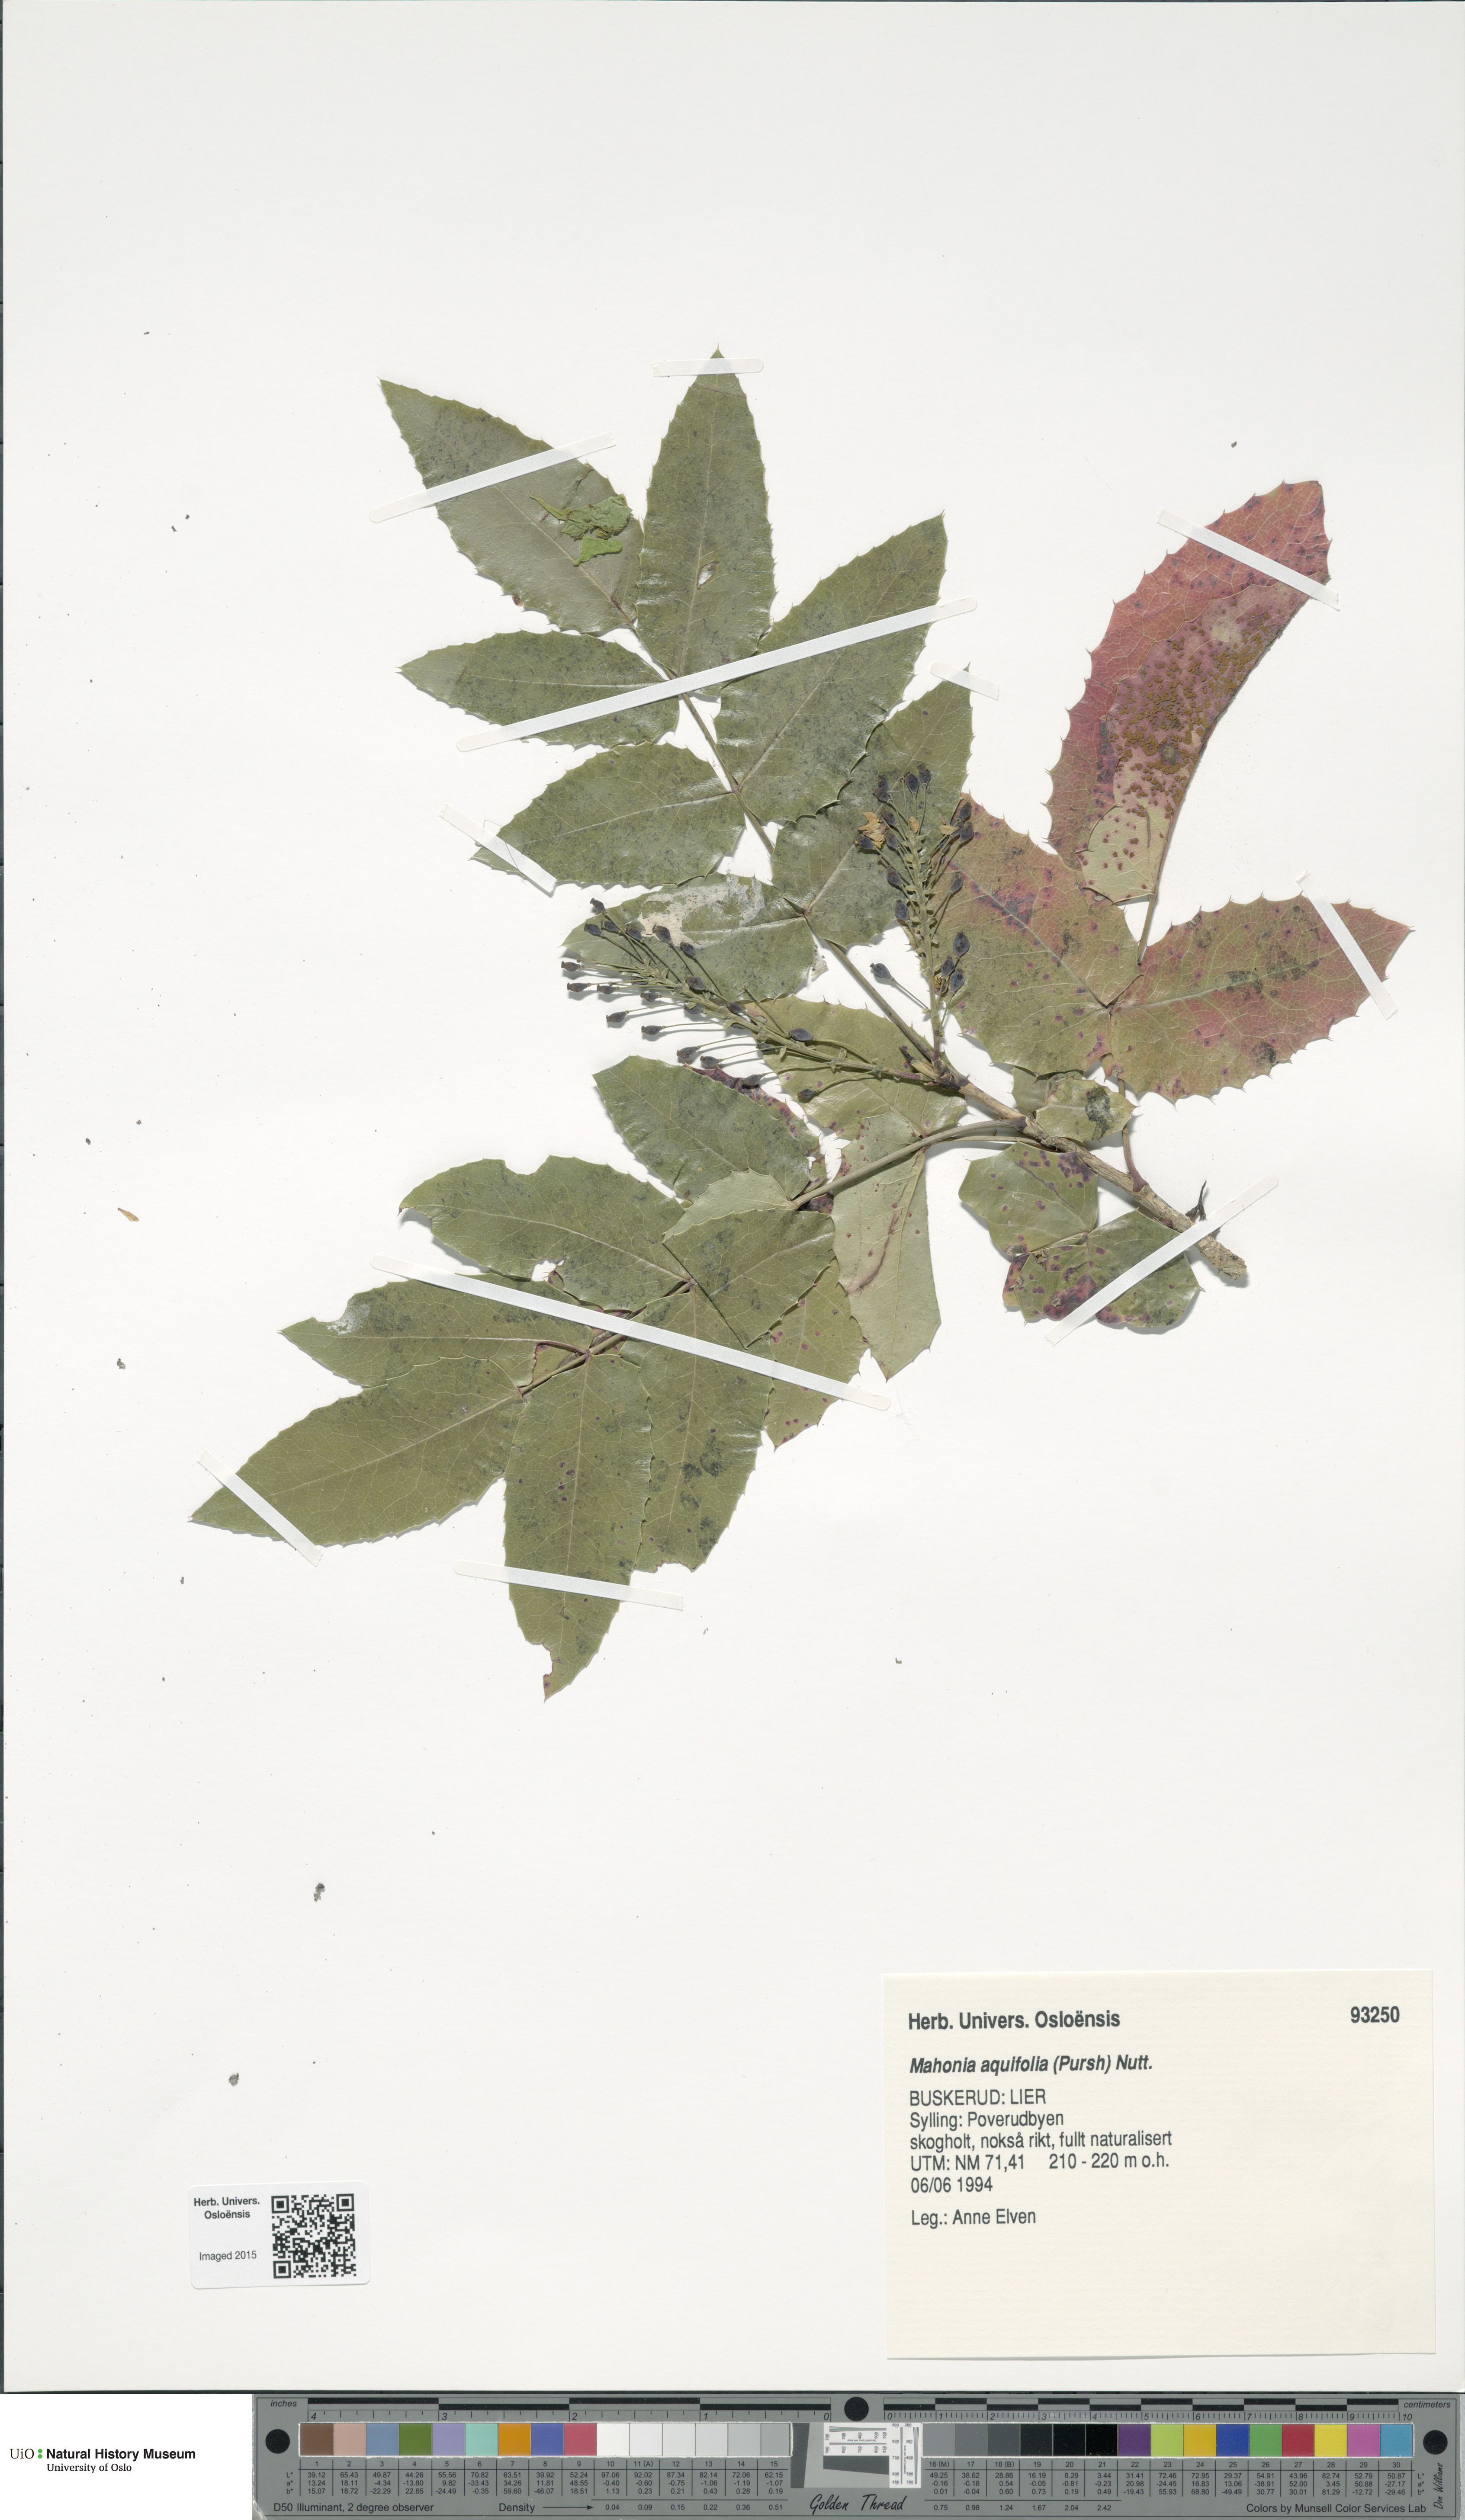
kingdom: Plantae
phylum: Tracheophyta
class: Magnoliopsida
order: Ranunculales
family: Berberidaceae
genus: Mahonia
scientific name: Mahonia aquifolium
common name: Oregon-grape
